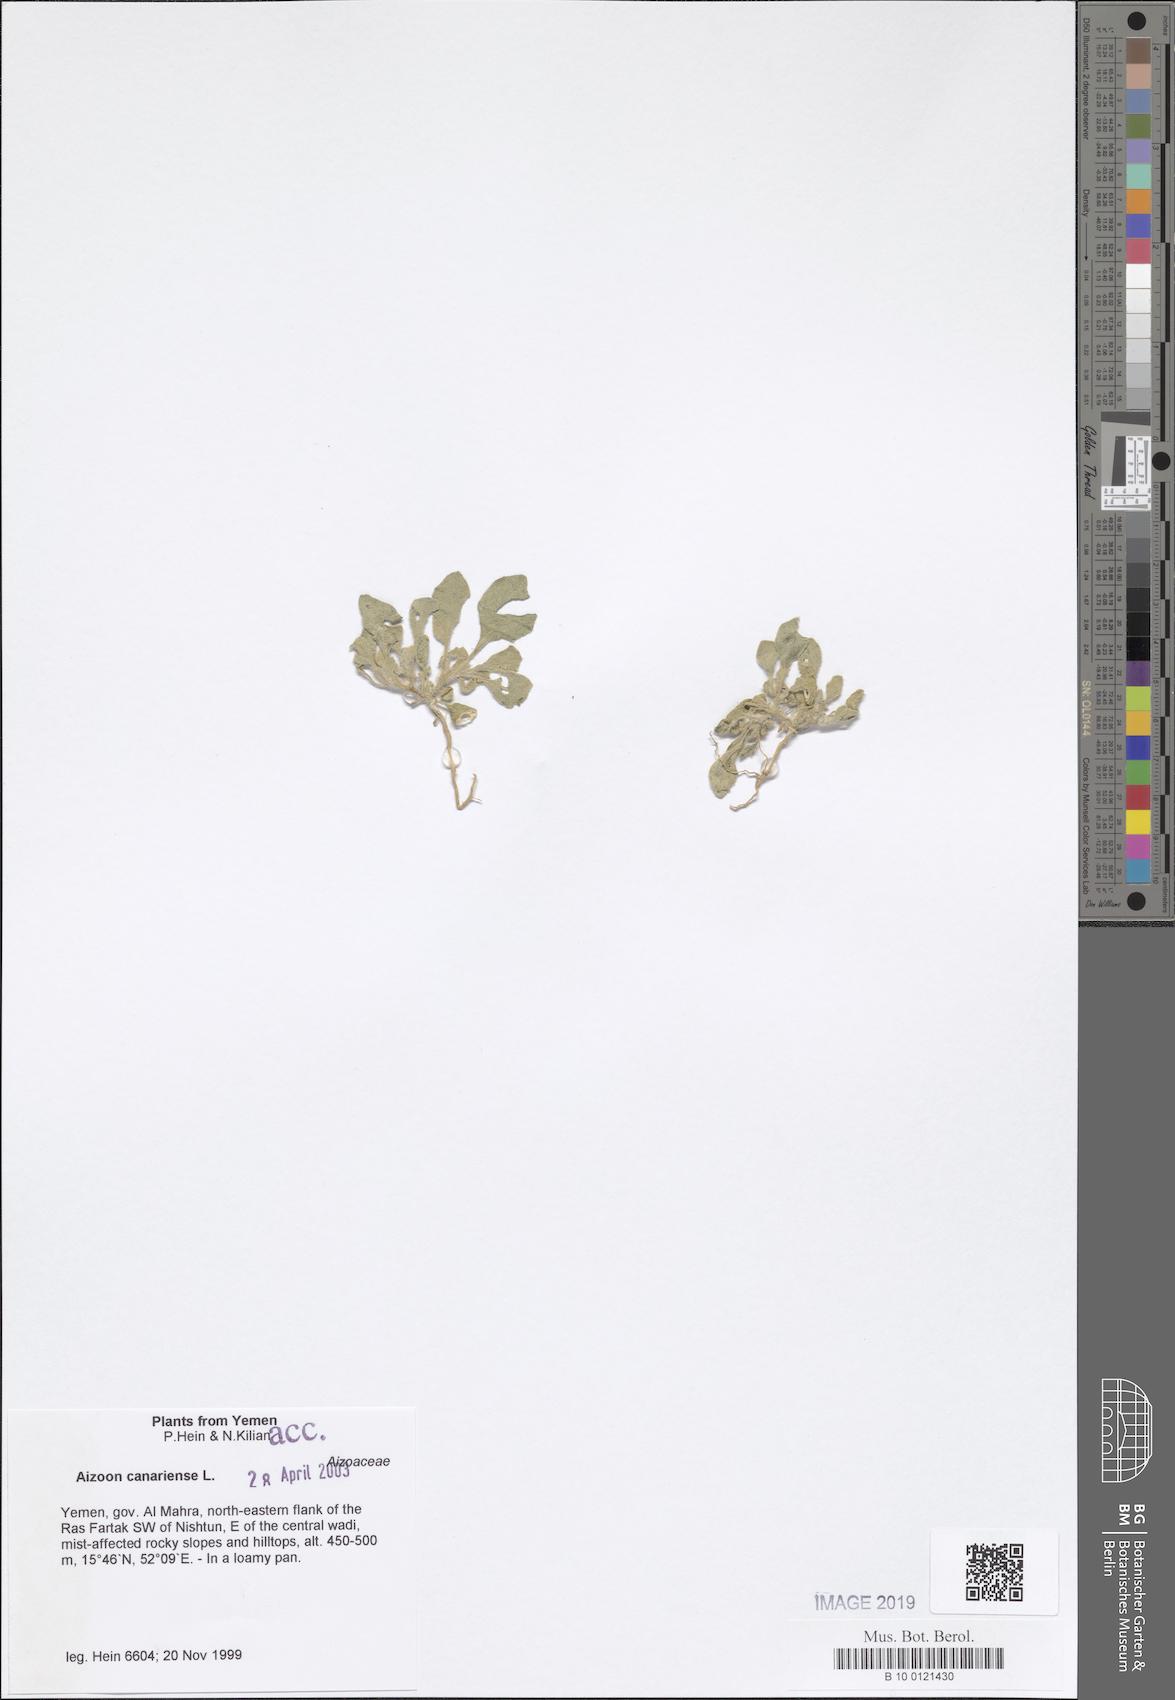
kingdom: Plantae
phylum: Tracheophyta
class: Magnoliopsida
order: Caryophyllales
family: Aizoaceae
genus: Aizoon
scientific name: Aizoon canariense
